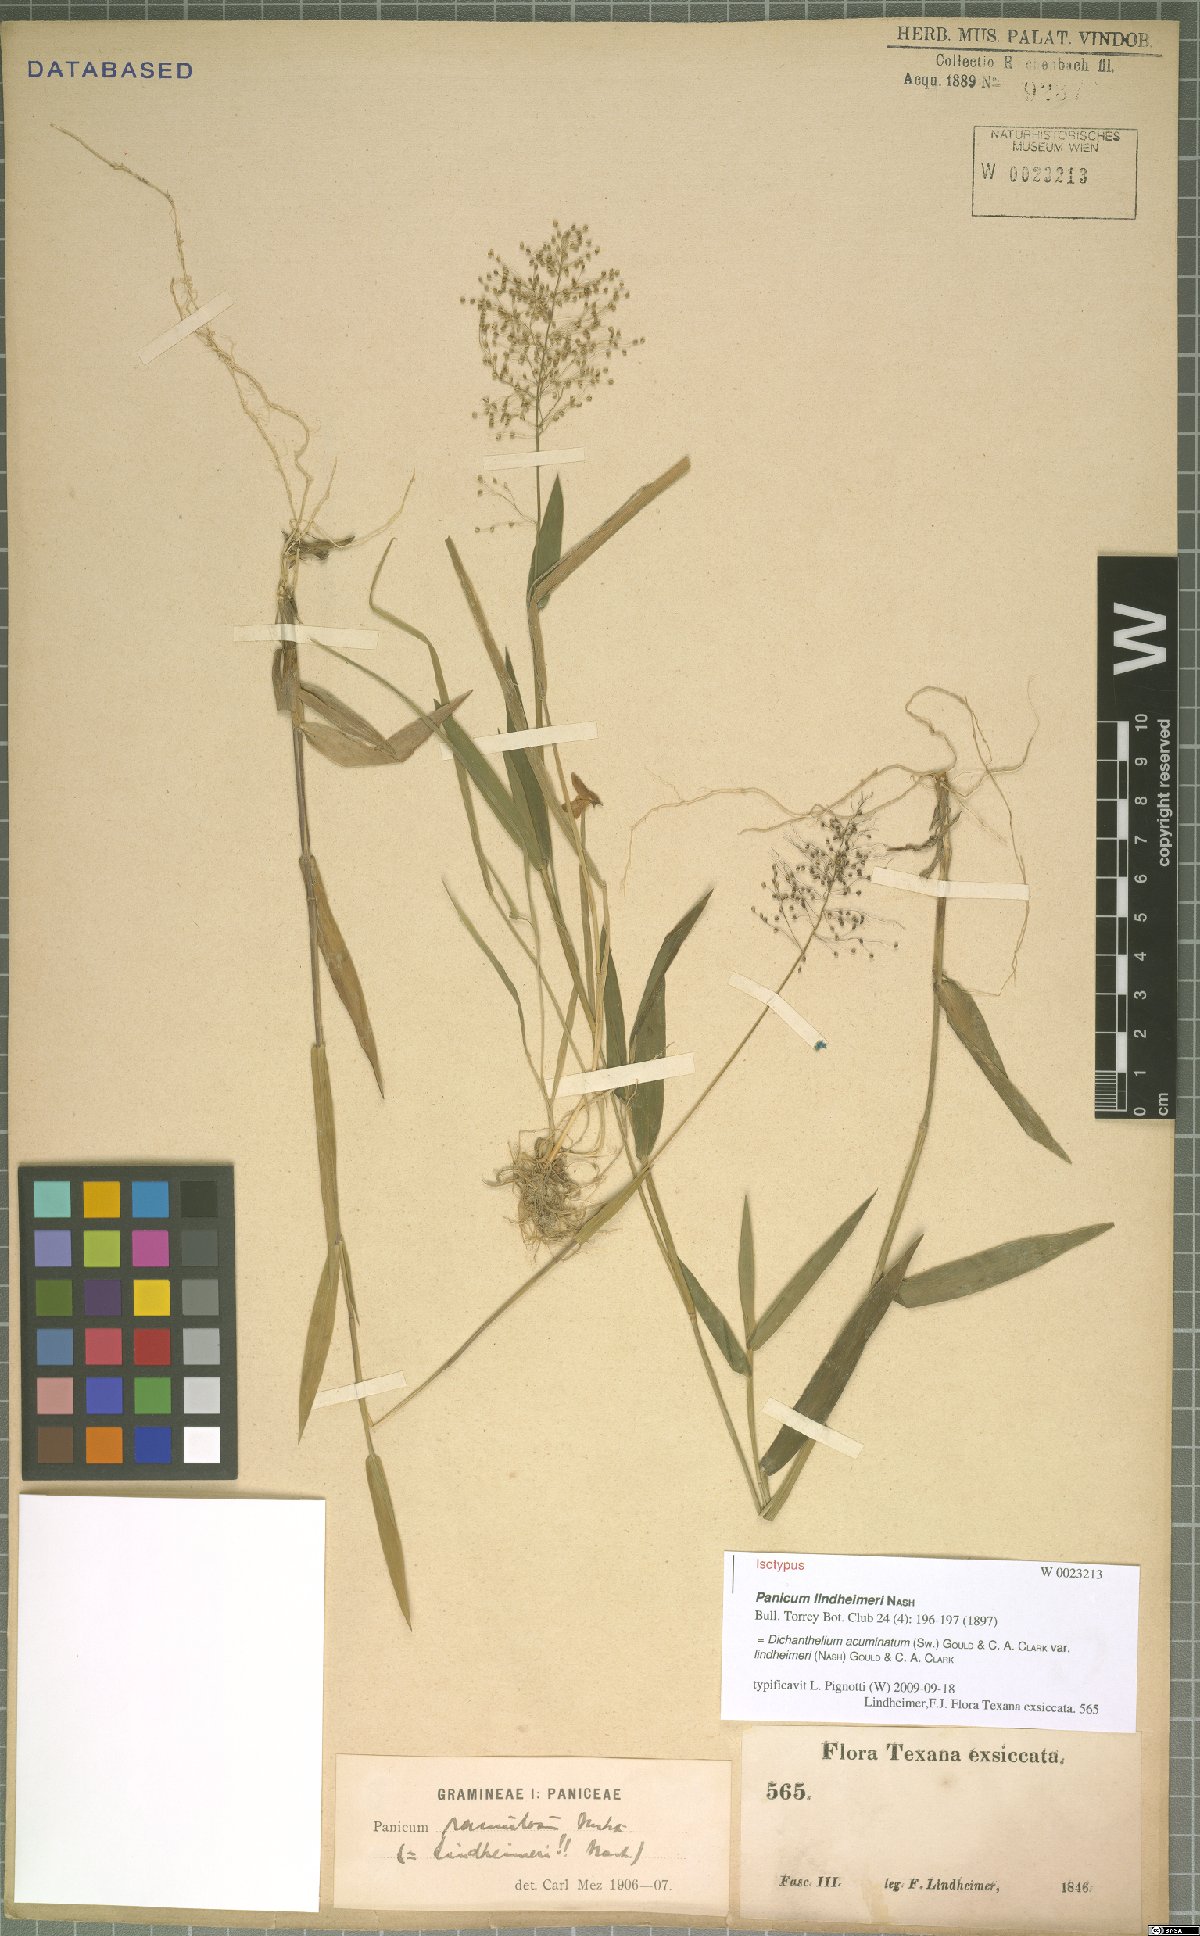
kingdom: Plantae
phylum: Tracheophyta
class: Liliopsida
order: Poales
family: Poaceae
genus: Dichanthelium
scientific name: Dichanthelium lindheimeri
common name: Lindheimer's panicgrass
